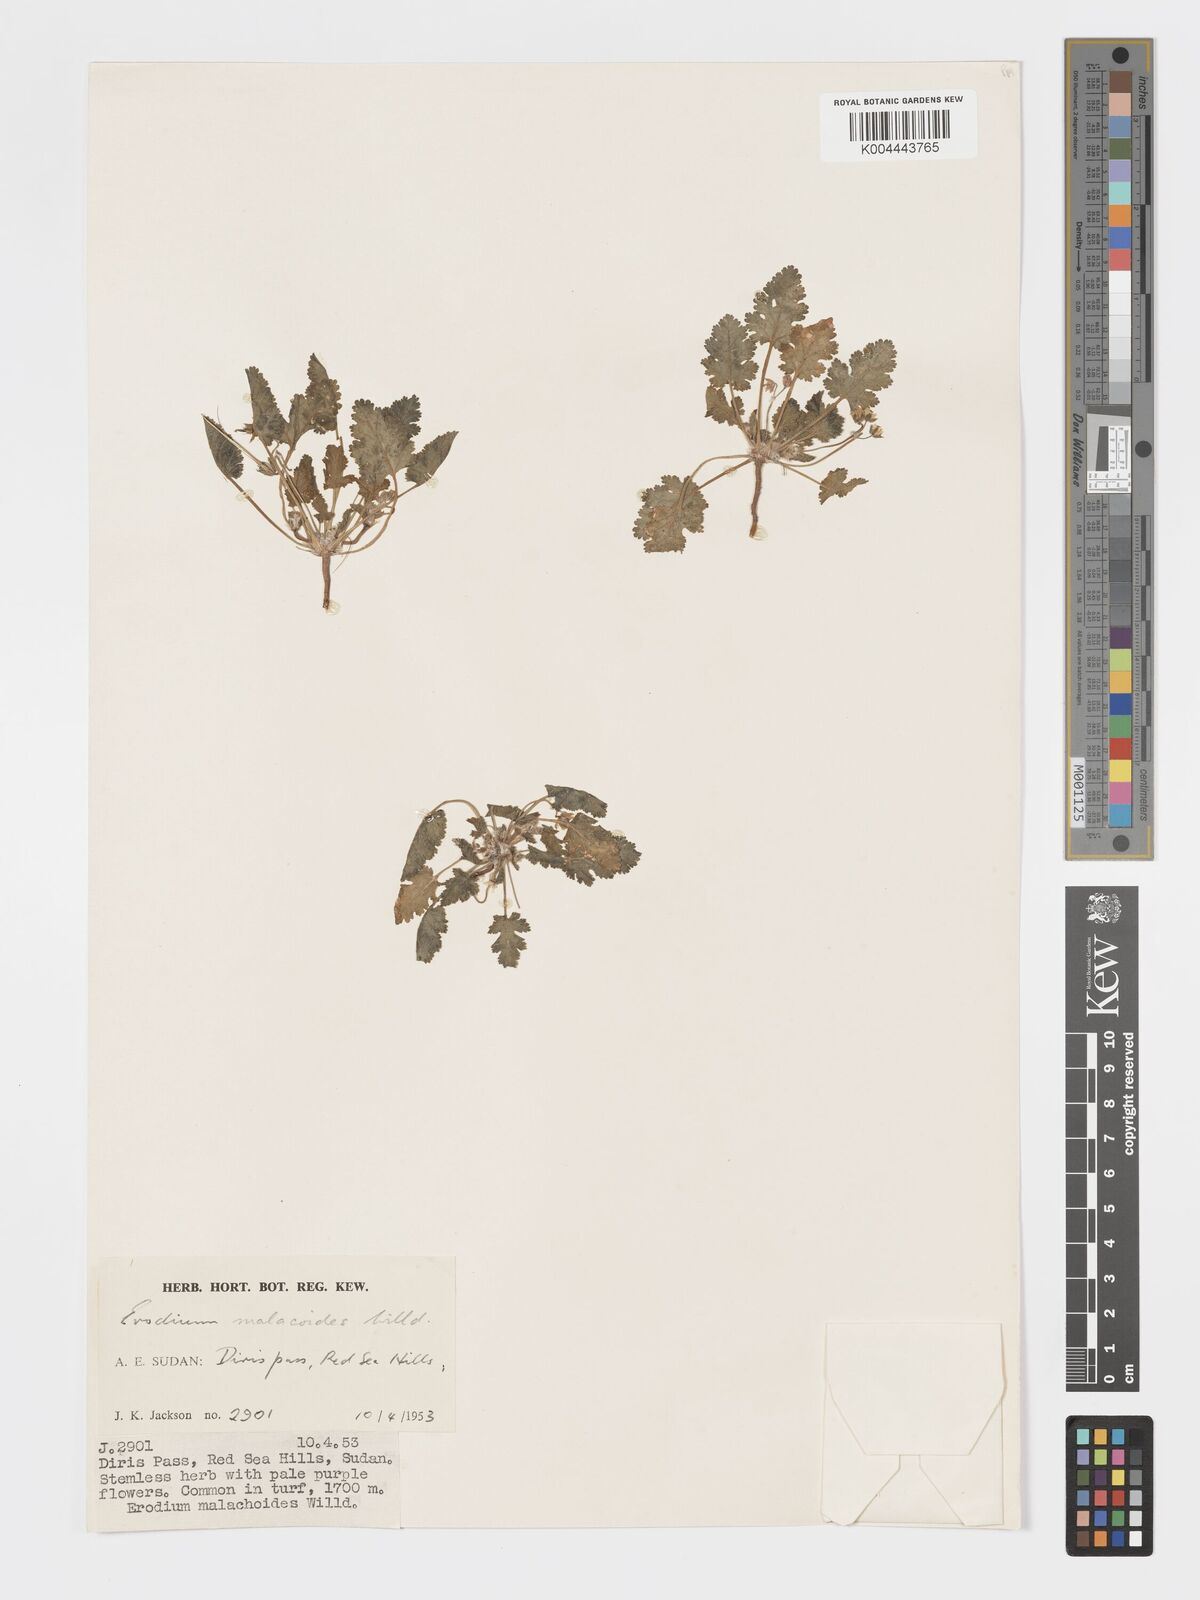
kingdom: Plantae
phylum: Tracheophyta
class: Magnoliopsida
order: Geraniales
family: Geraniaceae
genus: Erodium
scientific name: Erodium malacoides
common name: Soft stork's-bill
